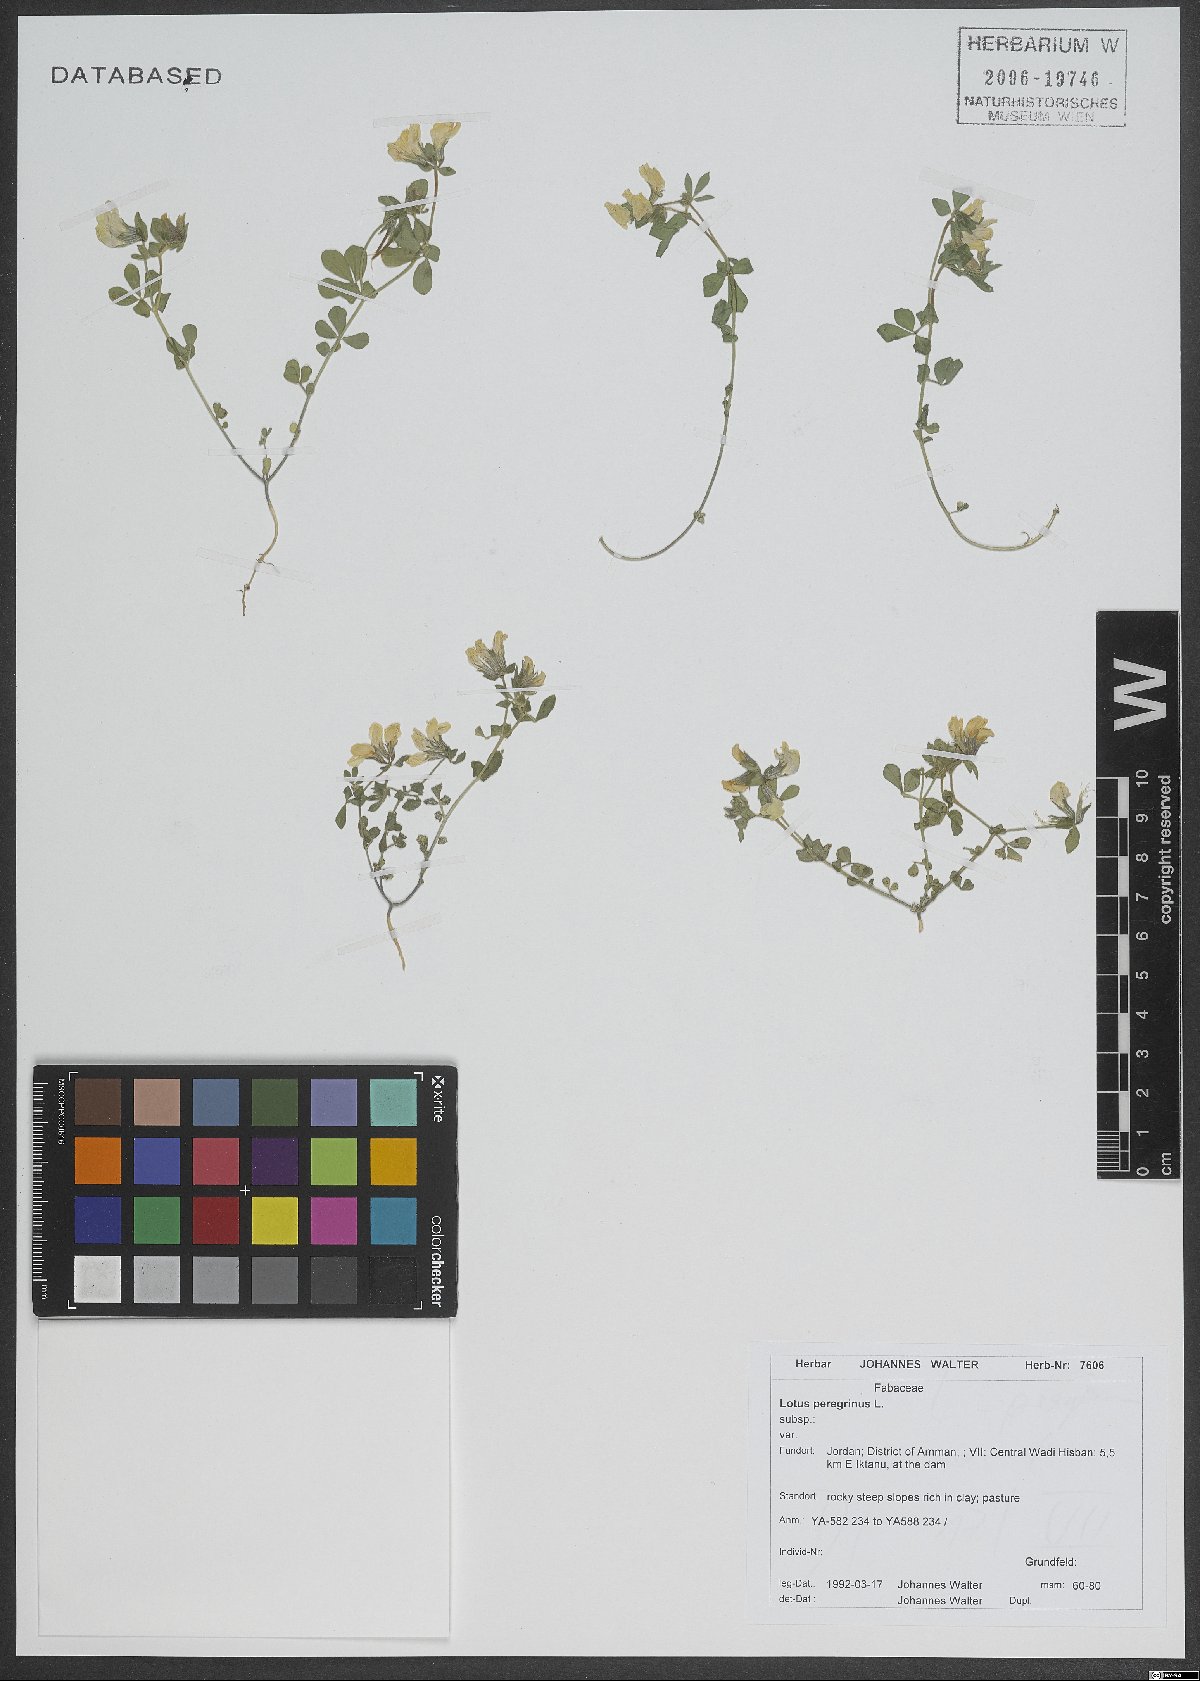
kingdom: Plantae
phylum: Tracheophyta
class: Magnoliopsida
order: Fabales
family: Fabaceae
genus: Lotus
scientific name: Lotus peregrinus
